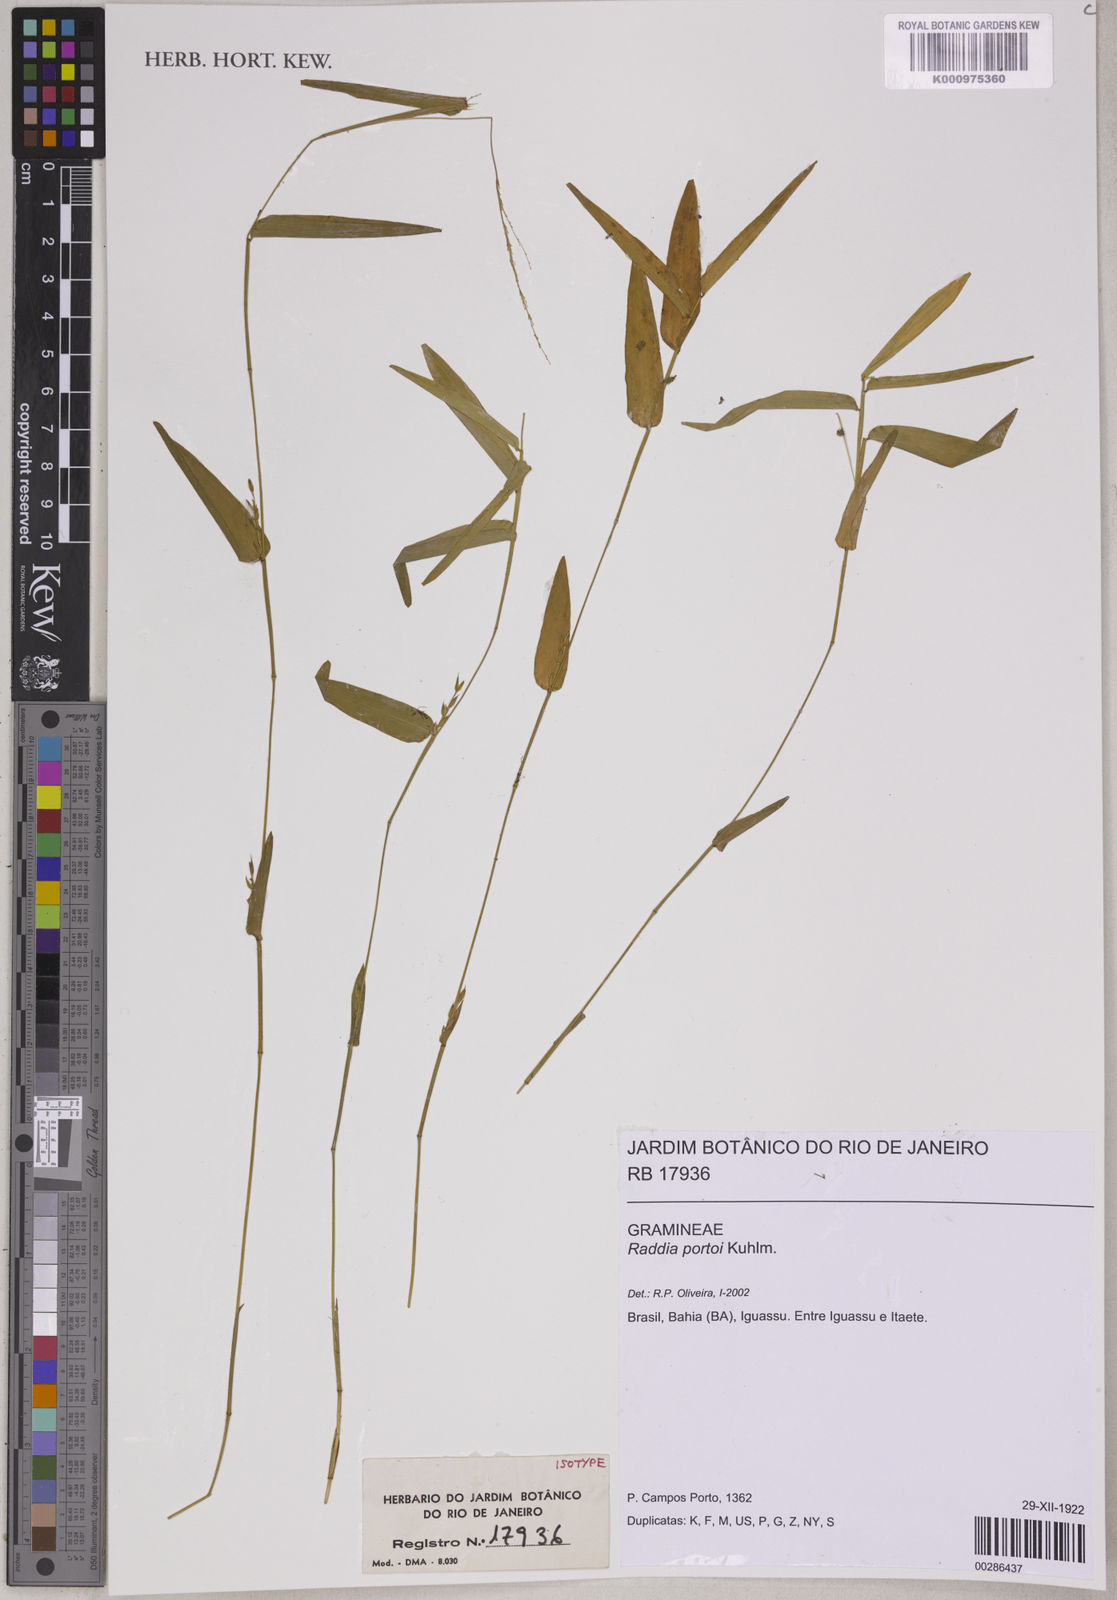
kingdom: Plantae
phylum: Tracheophyta
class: Liliopsida
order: Poales
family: Poaceae
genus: Raddia
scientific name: Raddia portoi
